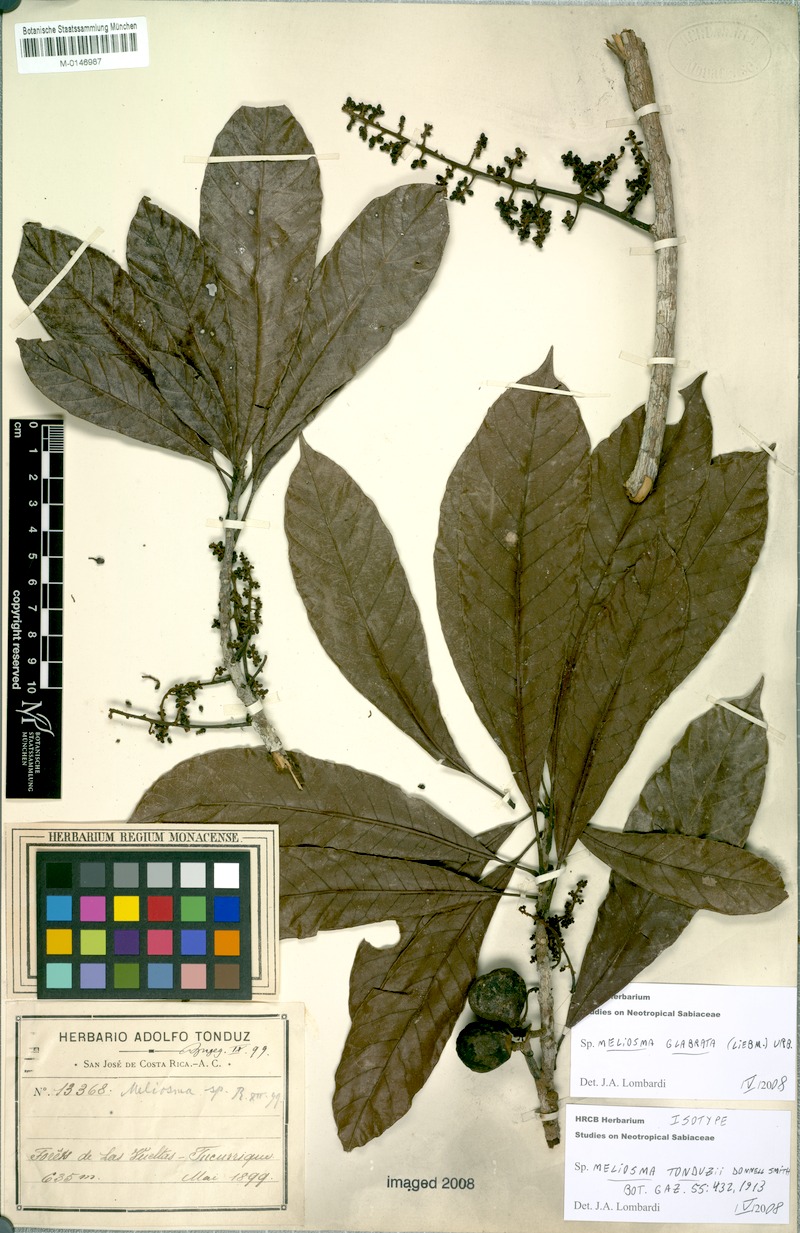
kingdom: Plantae
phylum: Tracheophyta
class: Magnoliopsida
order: Proteales
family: Sabiaceae
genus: Meliosma
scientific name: Meliosma glabrata
